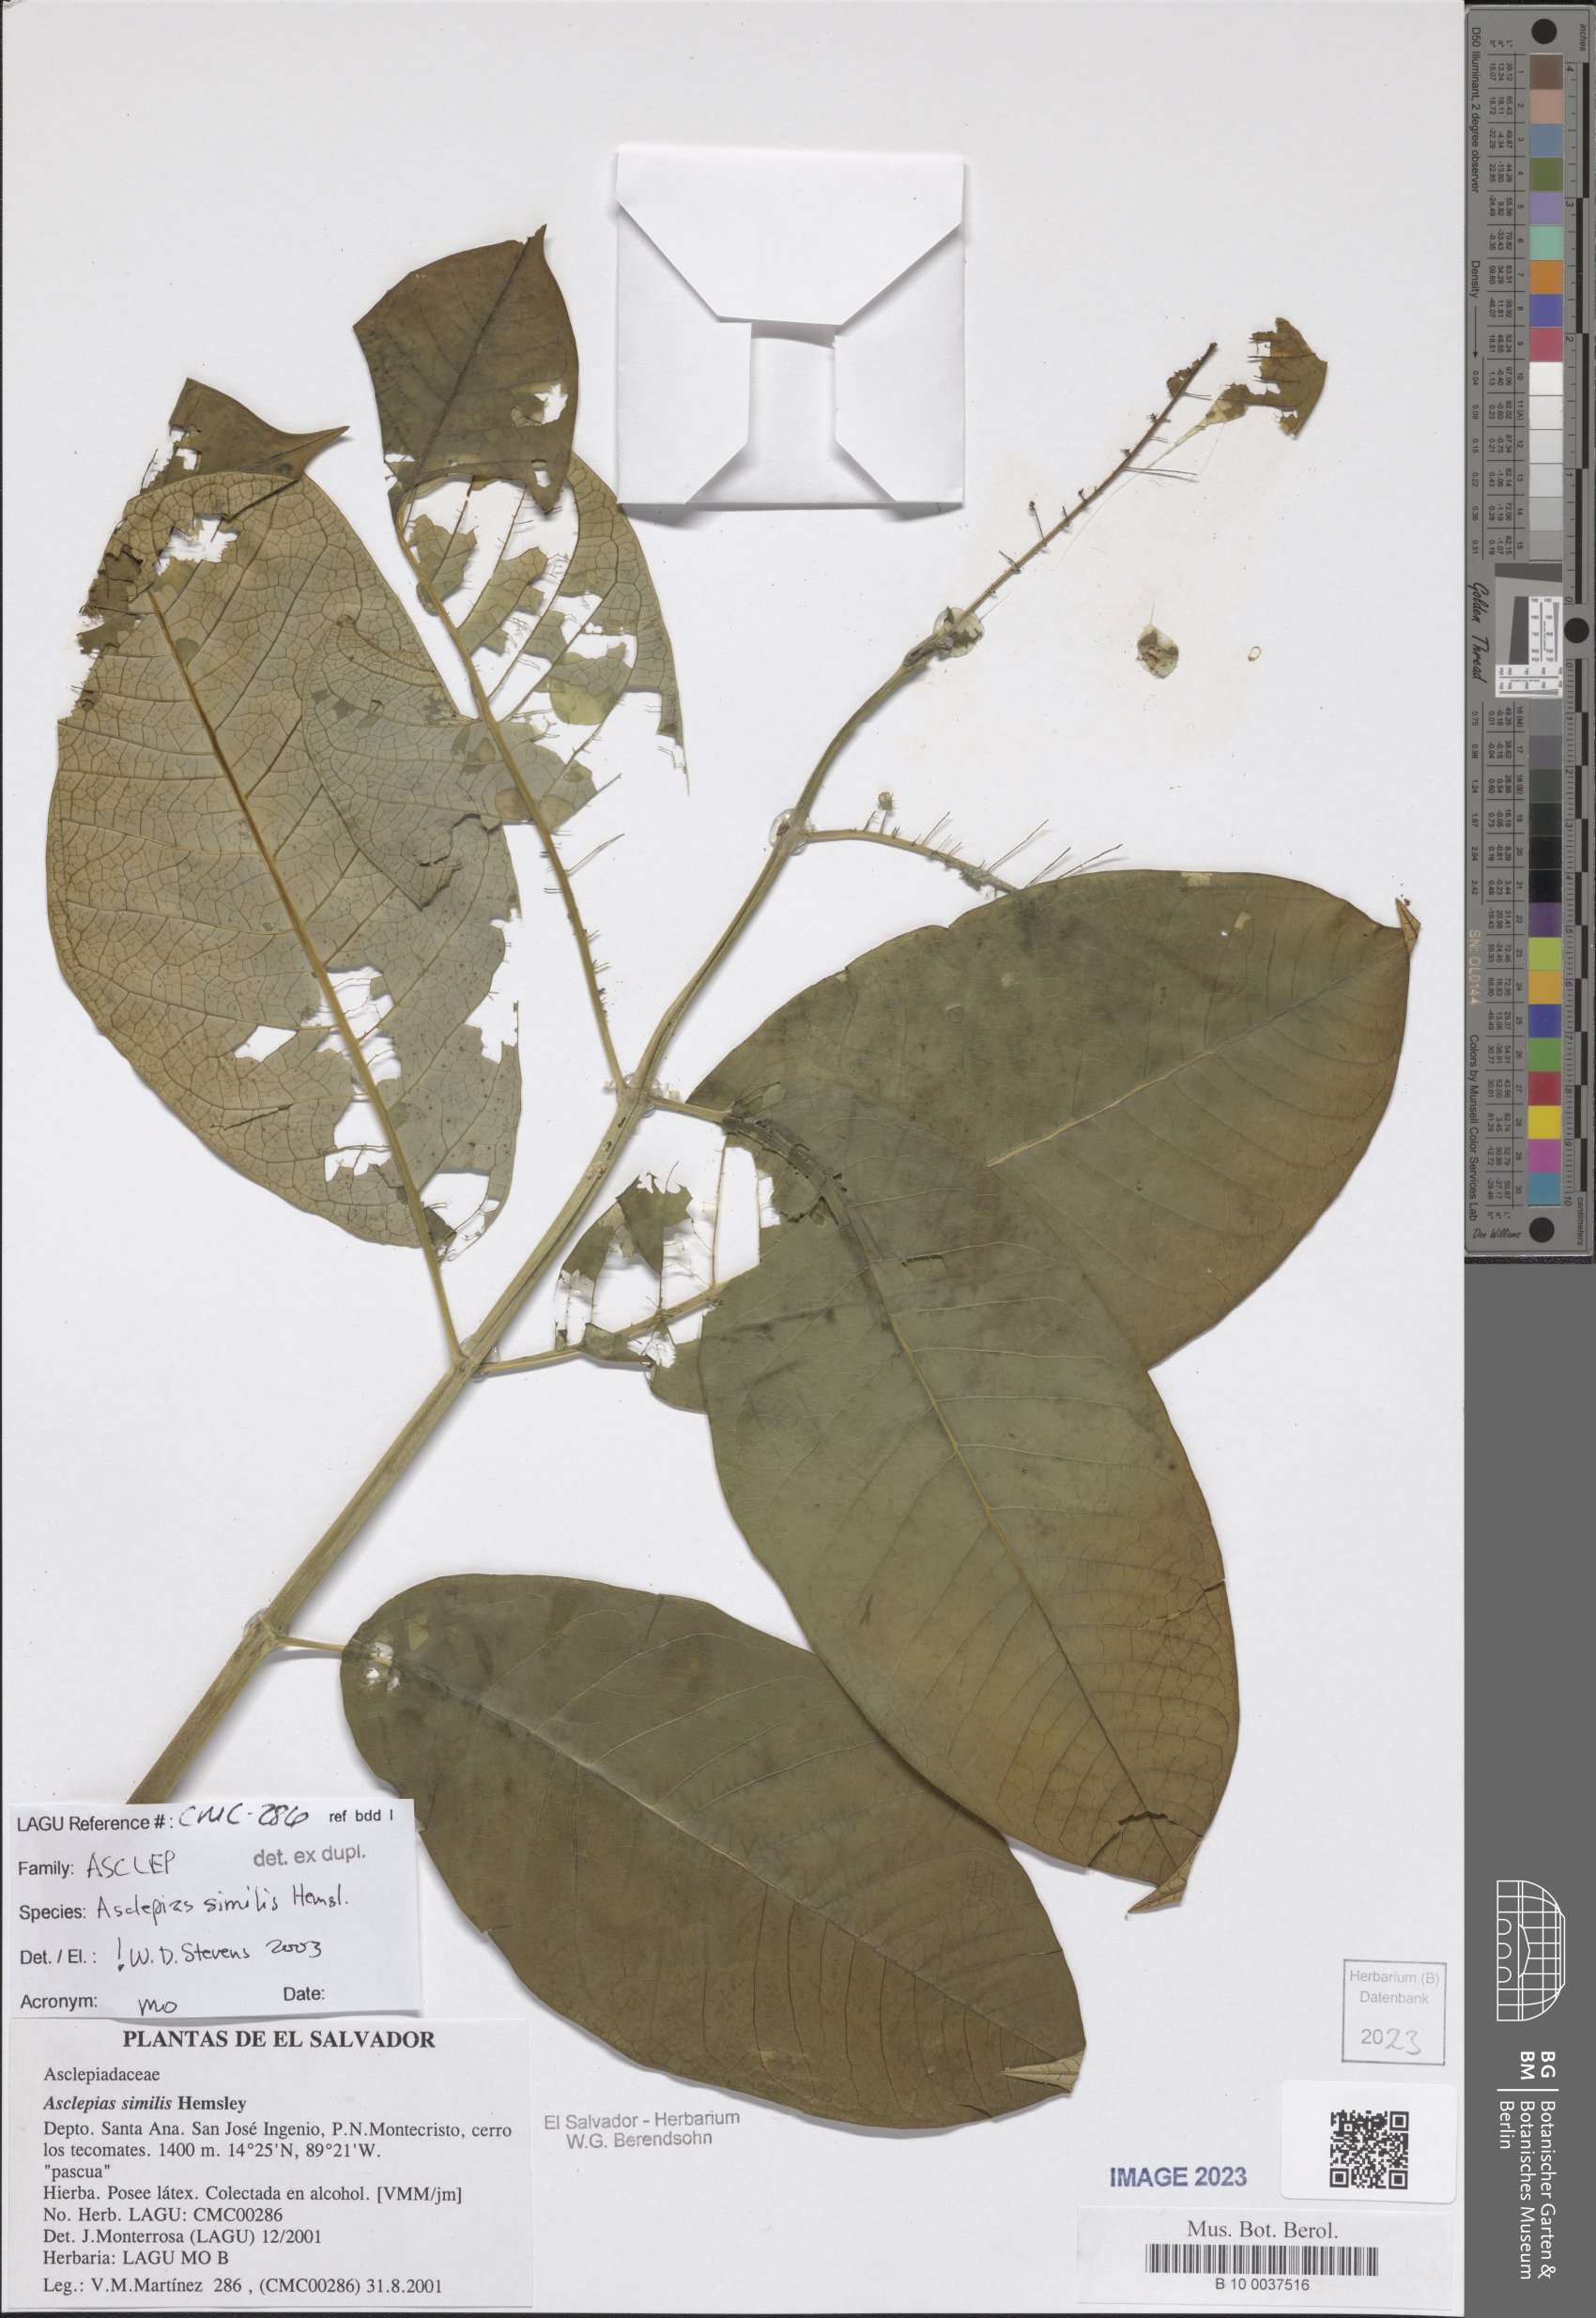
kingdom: Plantae
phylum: Tracheophyta
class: Magnoliopsida
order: Gentianales
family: Apocynaceae
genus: Asclepias
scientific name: Asclepias similis
